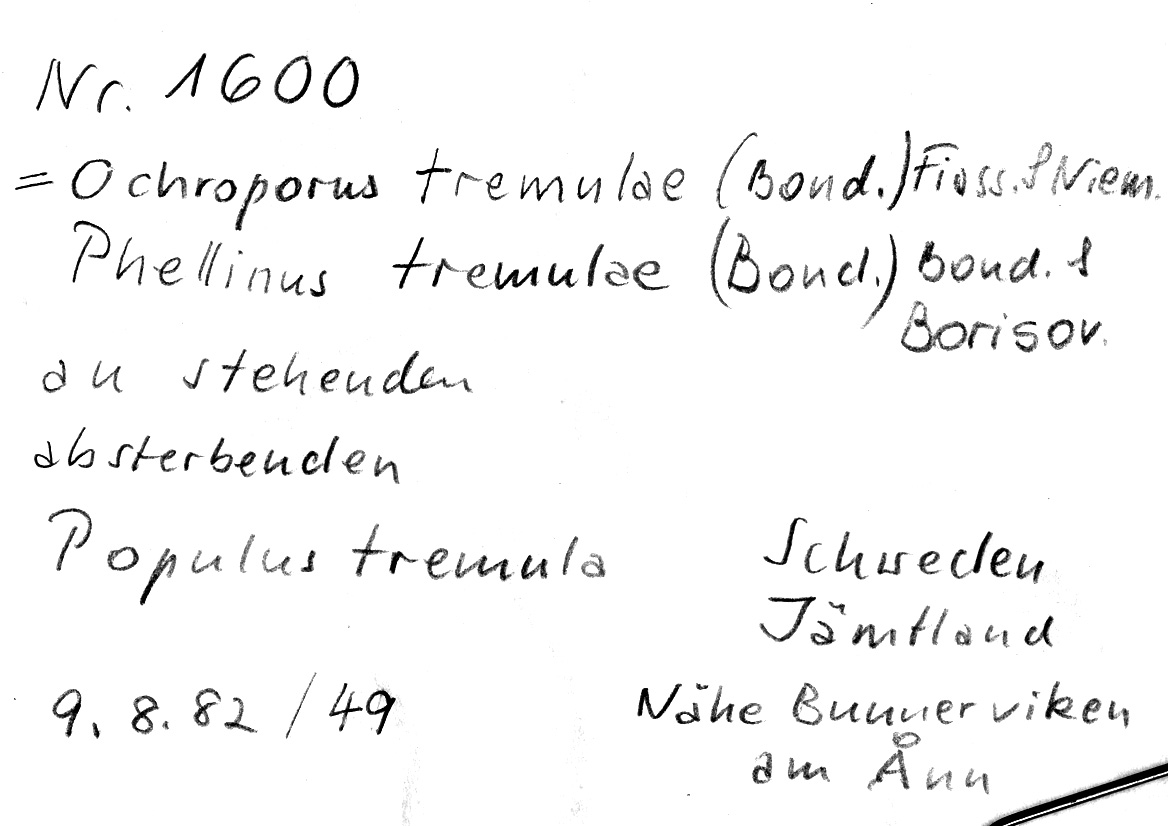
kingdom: Fungi
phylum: Basidiomycota
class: Agaricomycetes
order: Hymenochaetales
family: Hymenochaetaceae
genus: Phellinus
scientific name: Phellinus tremulae
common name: Aspen bracket
